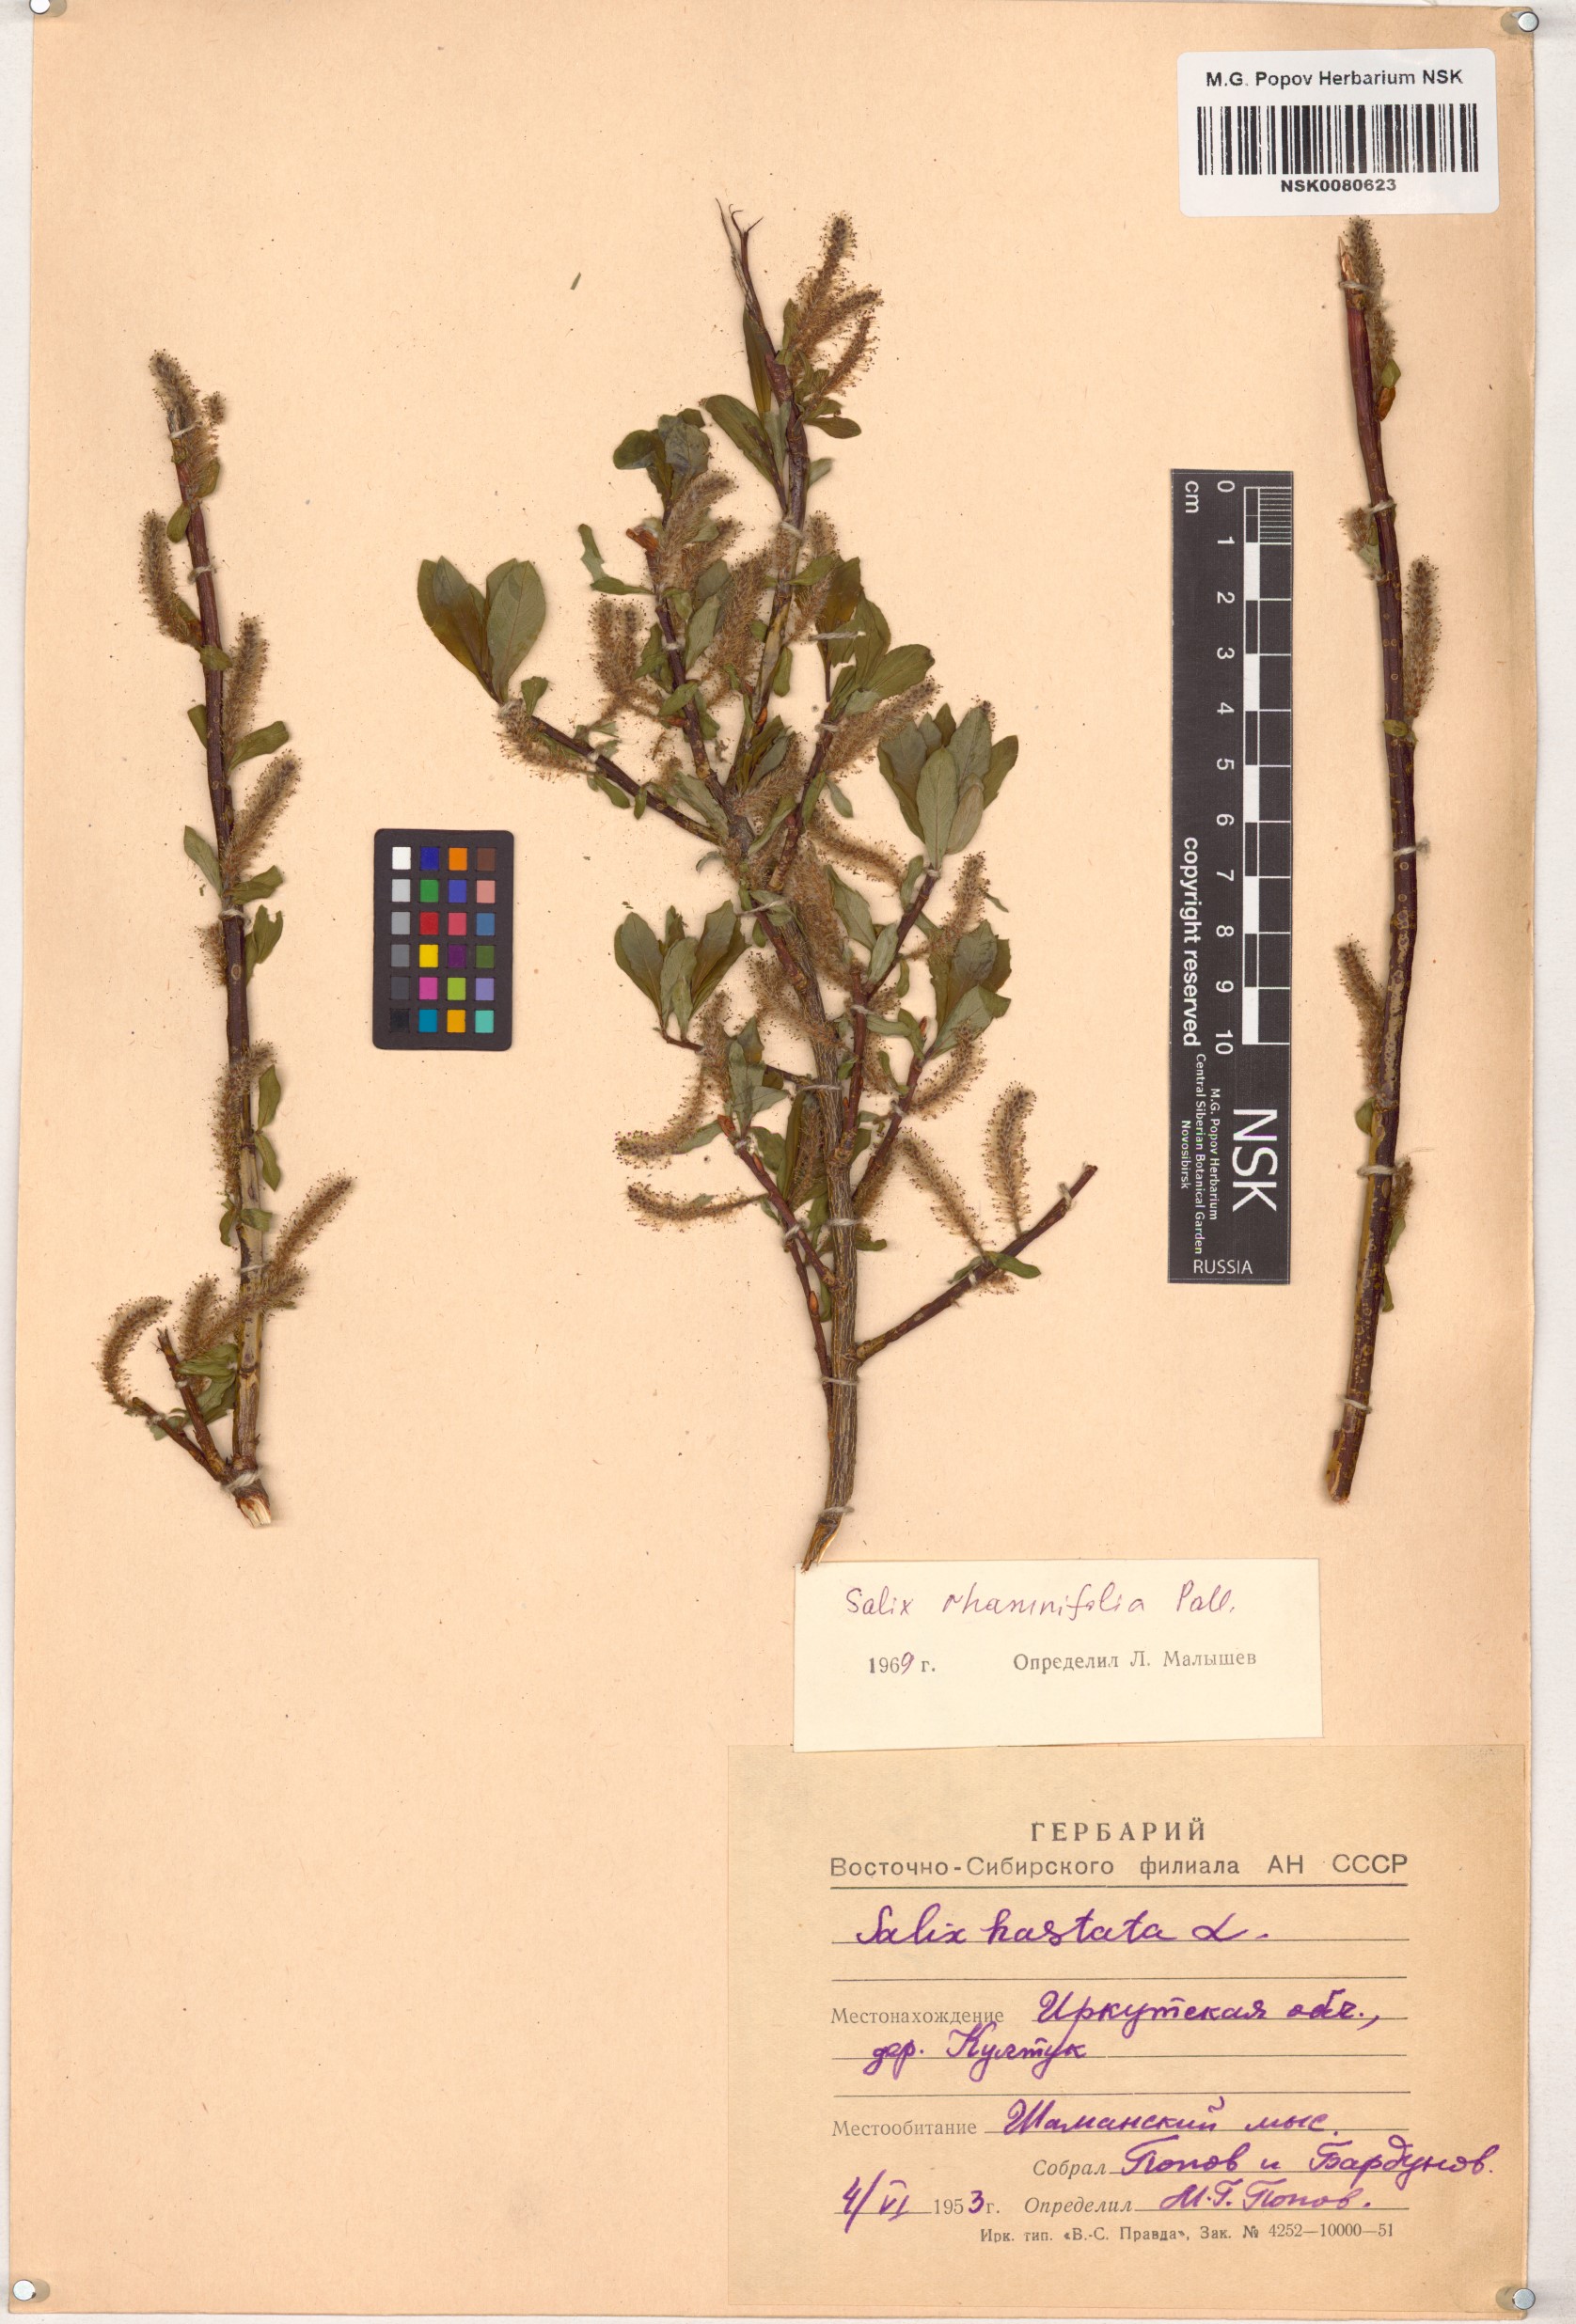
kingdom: Plantae
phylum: Tracheophyta
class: Magnoliopsida
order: Malpighiales
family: Salicaceae
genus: Salix
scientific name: Salix rhamnifolia
